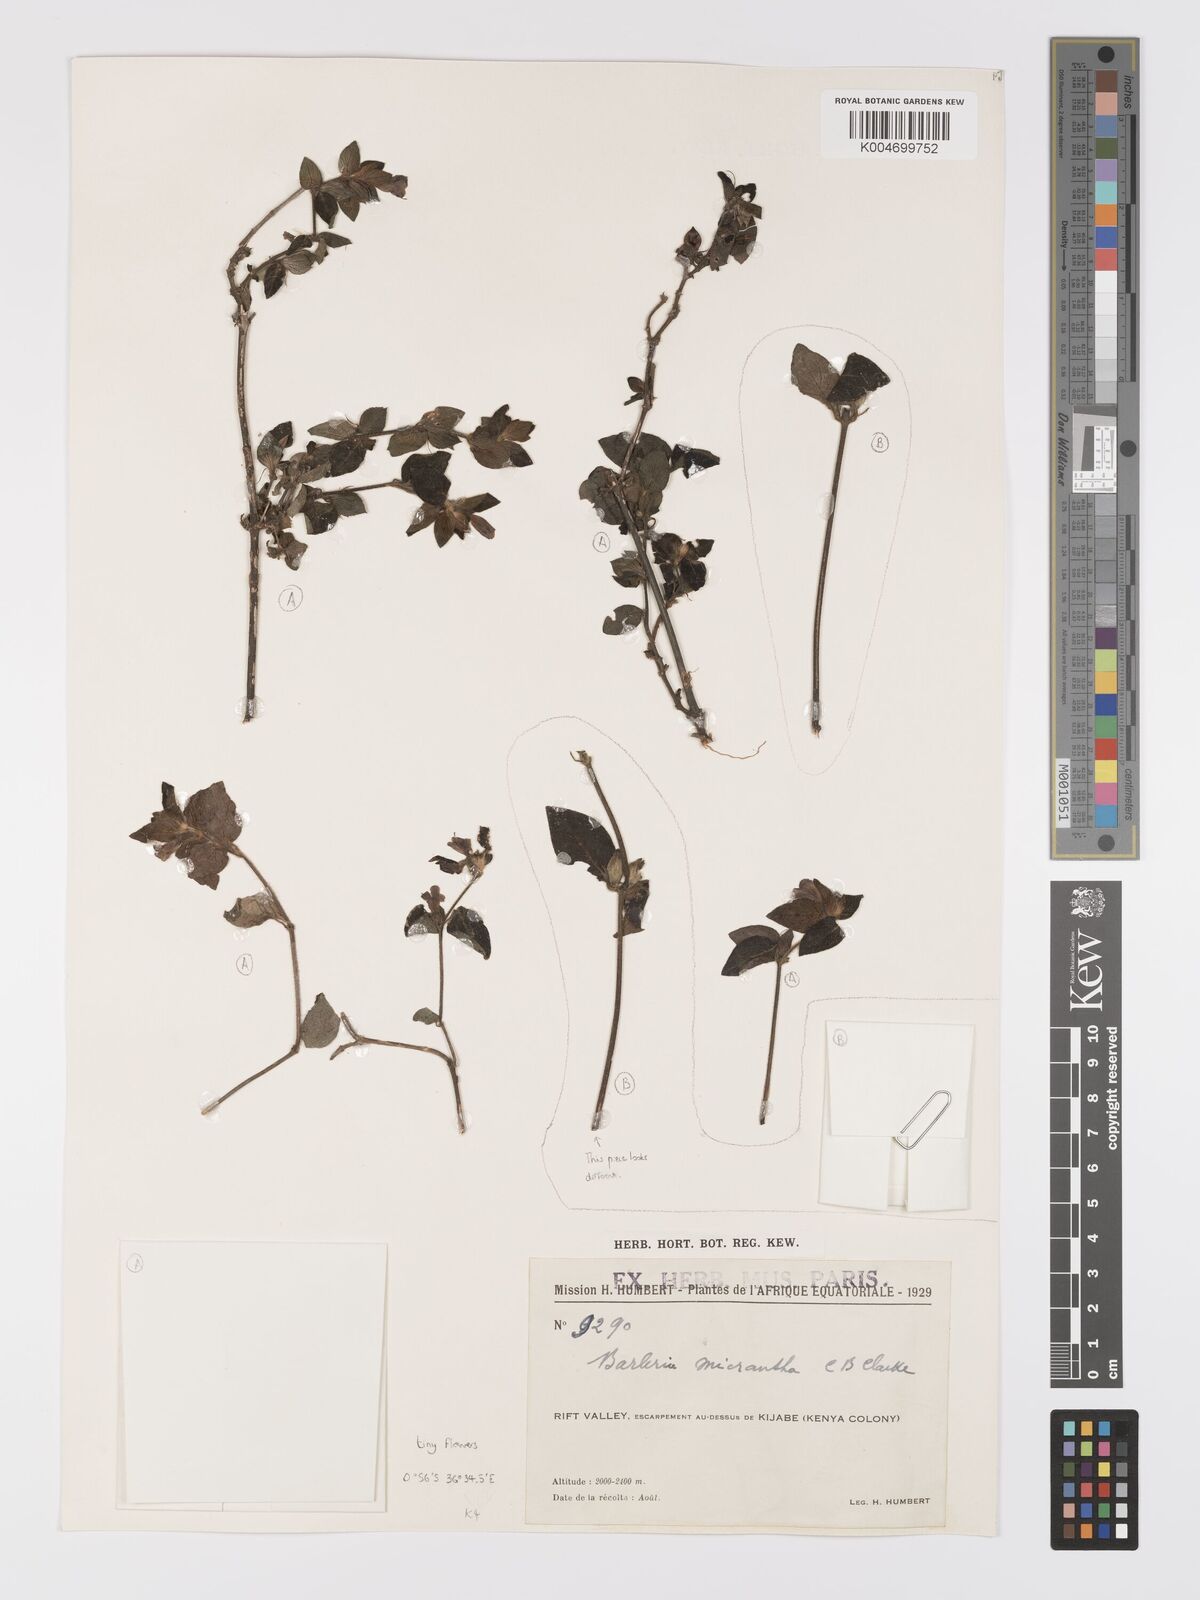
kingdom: Plantae
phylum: Tracheophyta
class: Magnoliopsida
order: Lamiales
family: Acanthaceae
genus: Barleria
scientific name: Barleria ventricosa
